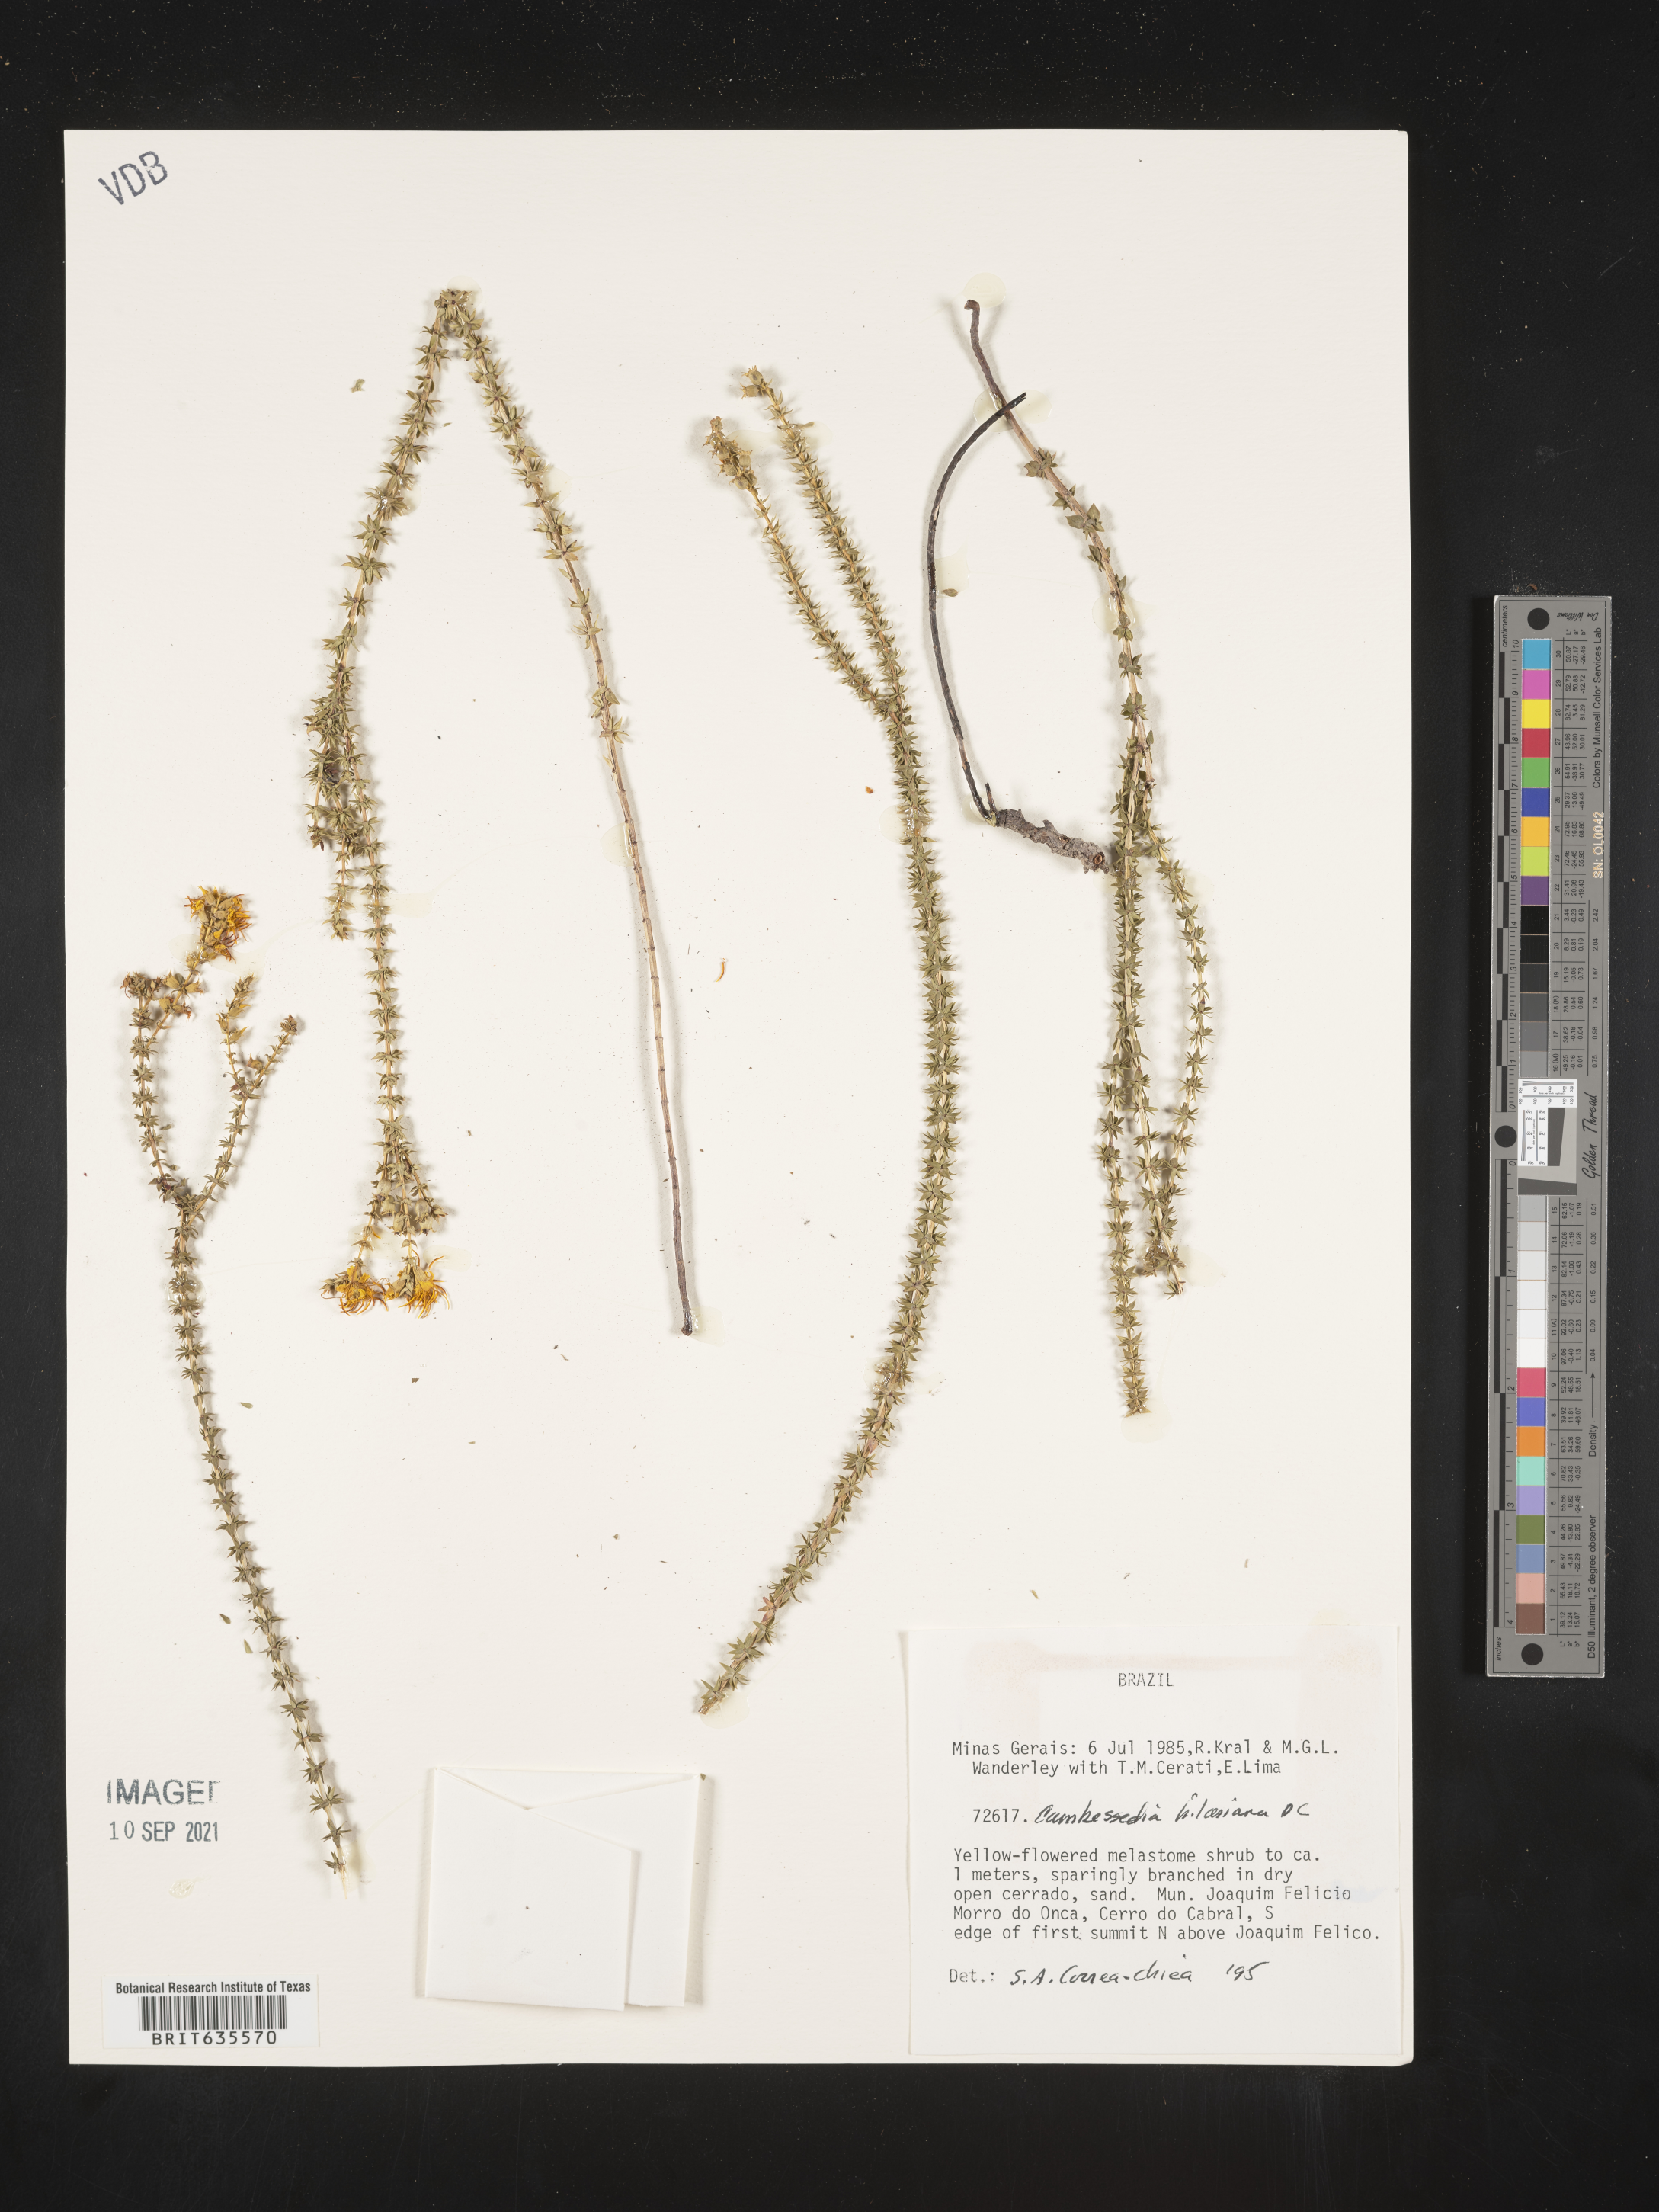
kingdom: Plantae
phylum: Tracheophyta
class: Magnoliopsida
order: Myrtales
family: Melastomataceae
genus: Cambessedesia
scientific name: Cambessedesia
